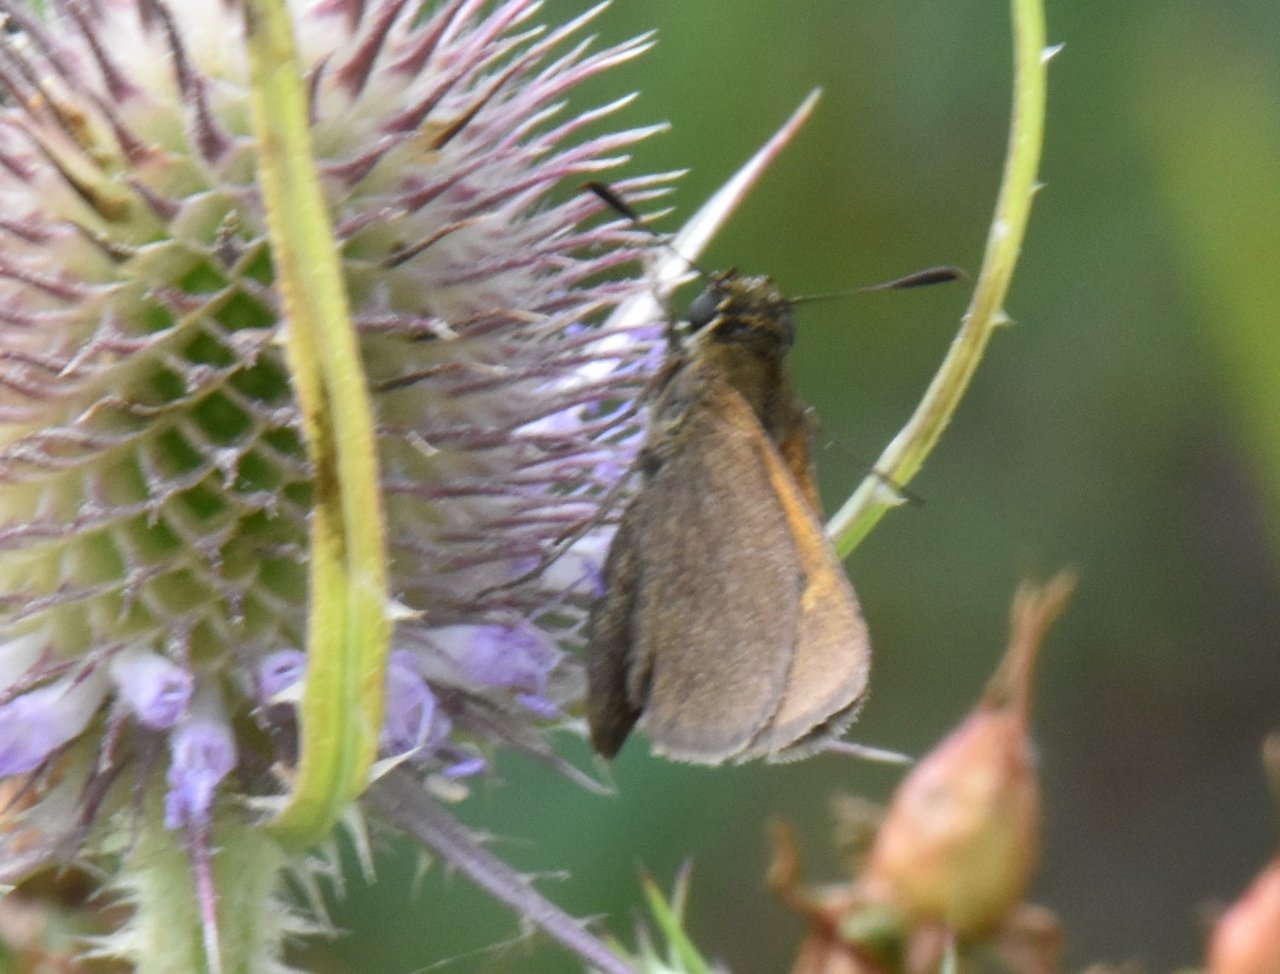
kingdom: Animalia
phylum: Arthropoda
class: Insecta
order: Lepidoptera
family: Hesperiidae
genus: Polites
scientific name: Polites themistocles
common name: Tawny-edged Skipper
